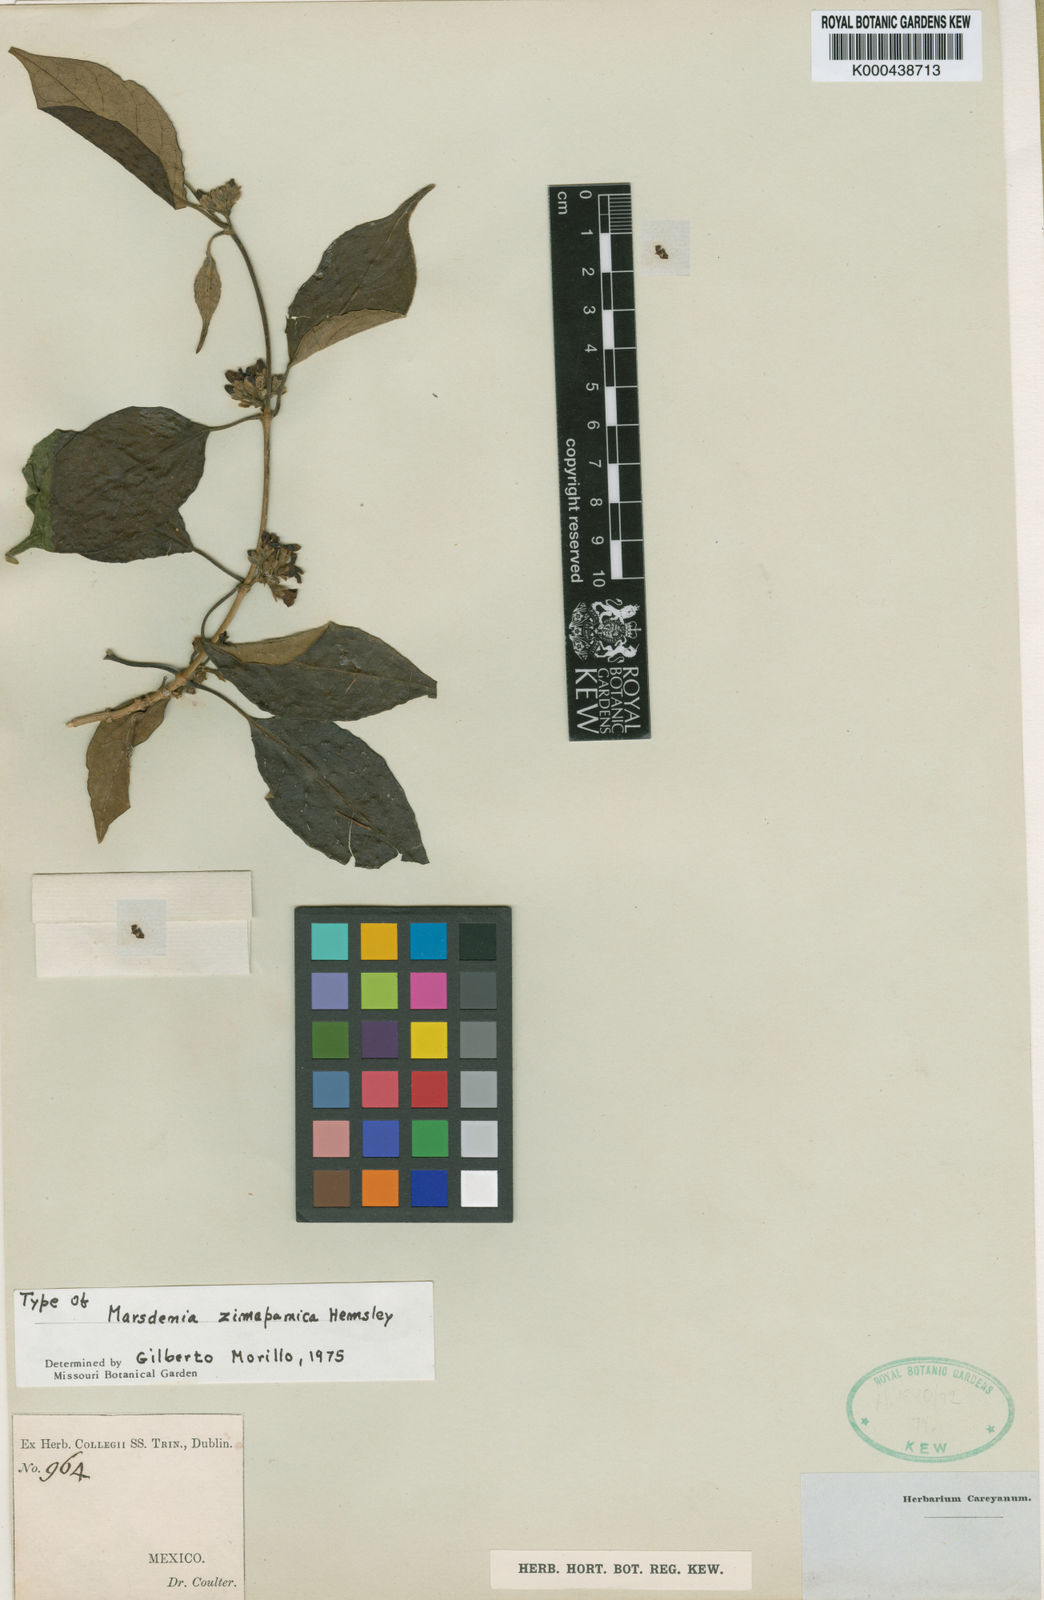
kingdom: Plantae
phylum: Tracheophyta
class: Magnoliopsida
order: Gentianales
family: Apocynaceae
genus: Ruehssia
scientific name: Ruehssia zimapanica
